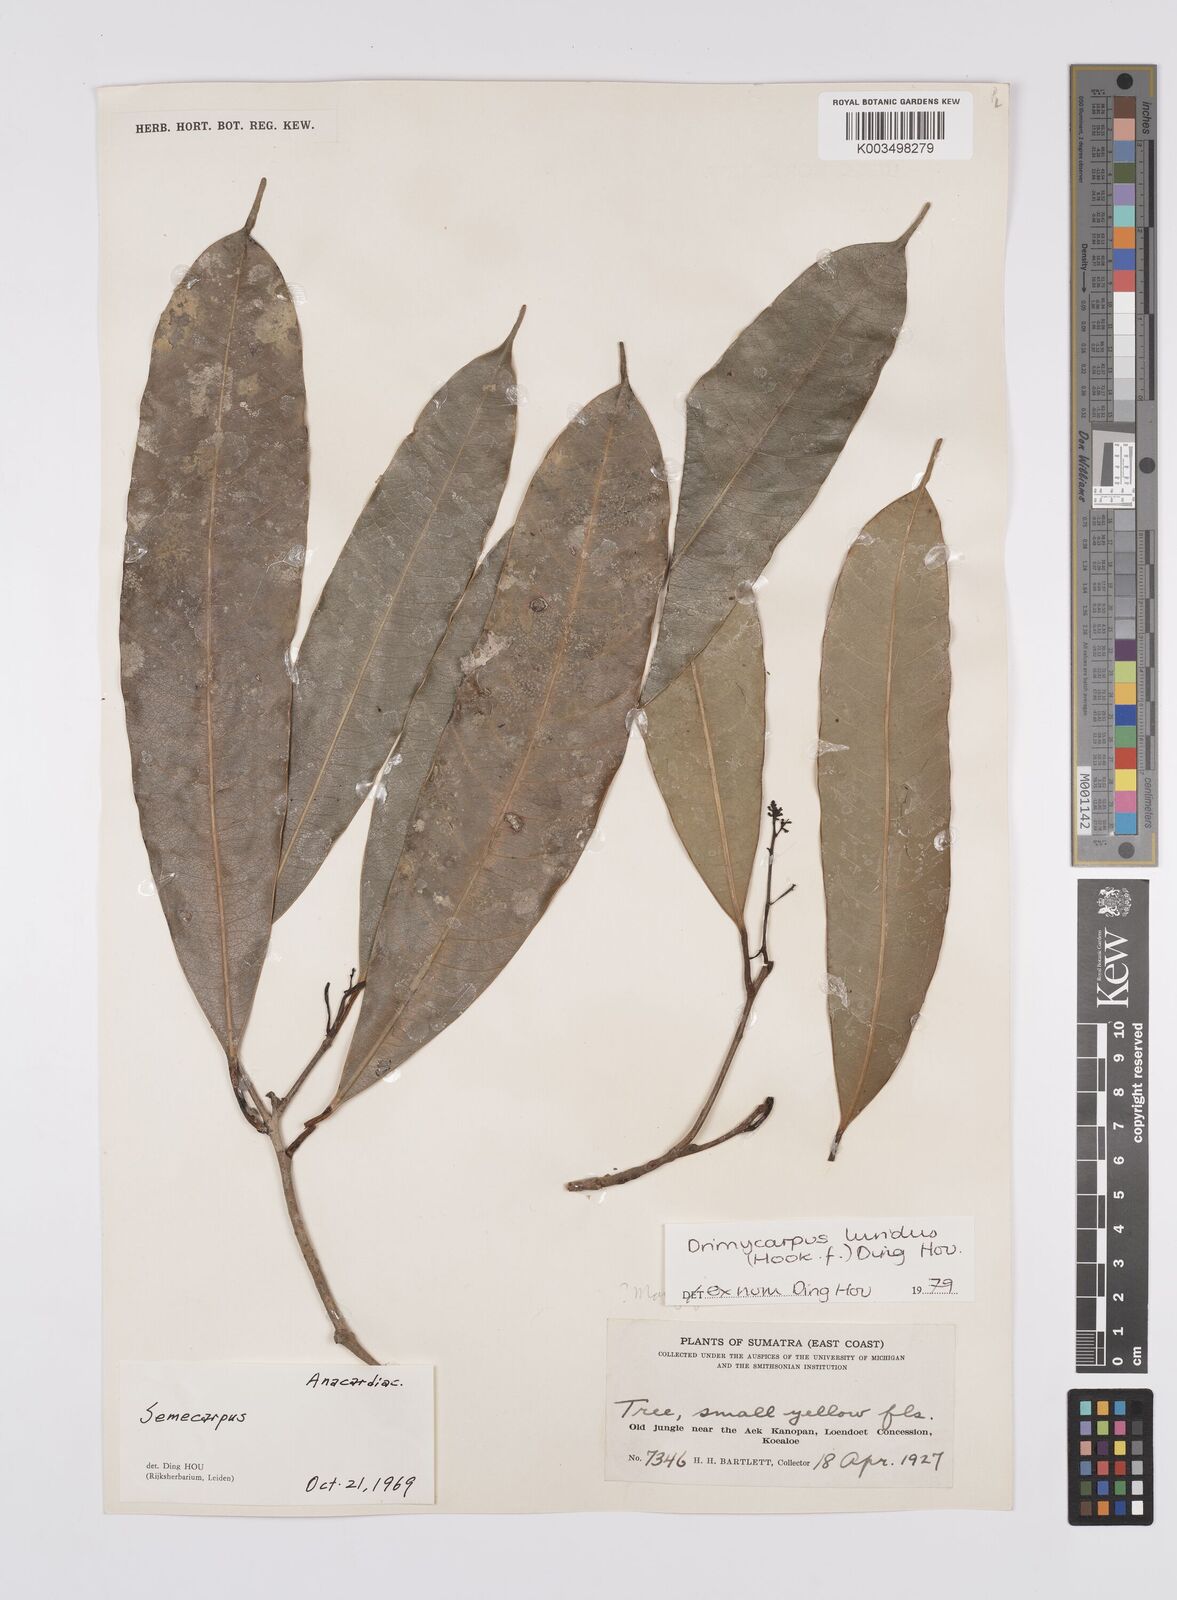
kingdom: Plantae
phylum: Tracheophyta
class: Magnoliopsida
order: Sapindales
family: Anacardiaceae
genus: Drimycarpus
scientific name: Drimycarpus luridus
